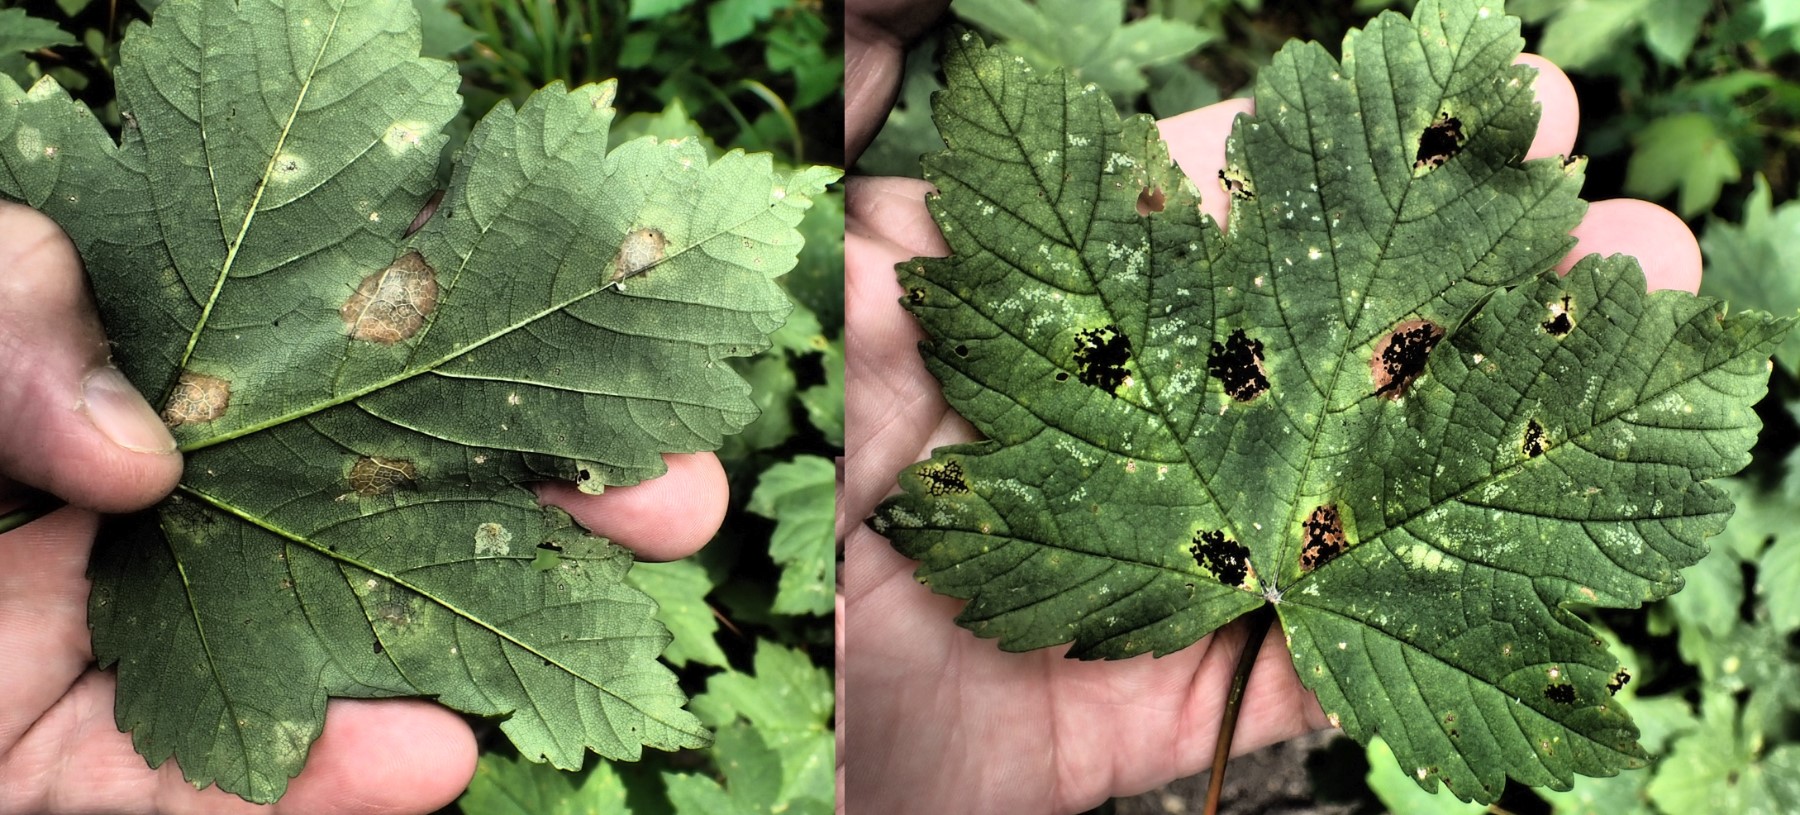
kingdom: Fungi
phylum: Ascomycota
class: Leotiomycetes
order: Rhytismatales
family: Rhytismataceae
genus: Rhytisma
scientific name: Rhytisma acerinum
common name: ahorn-rynkeplet
